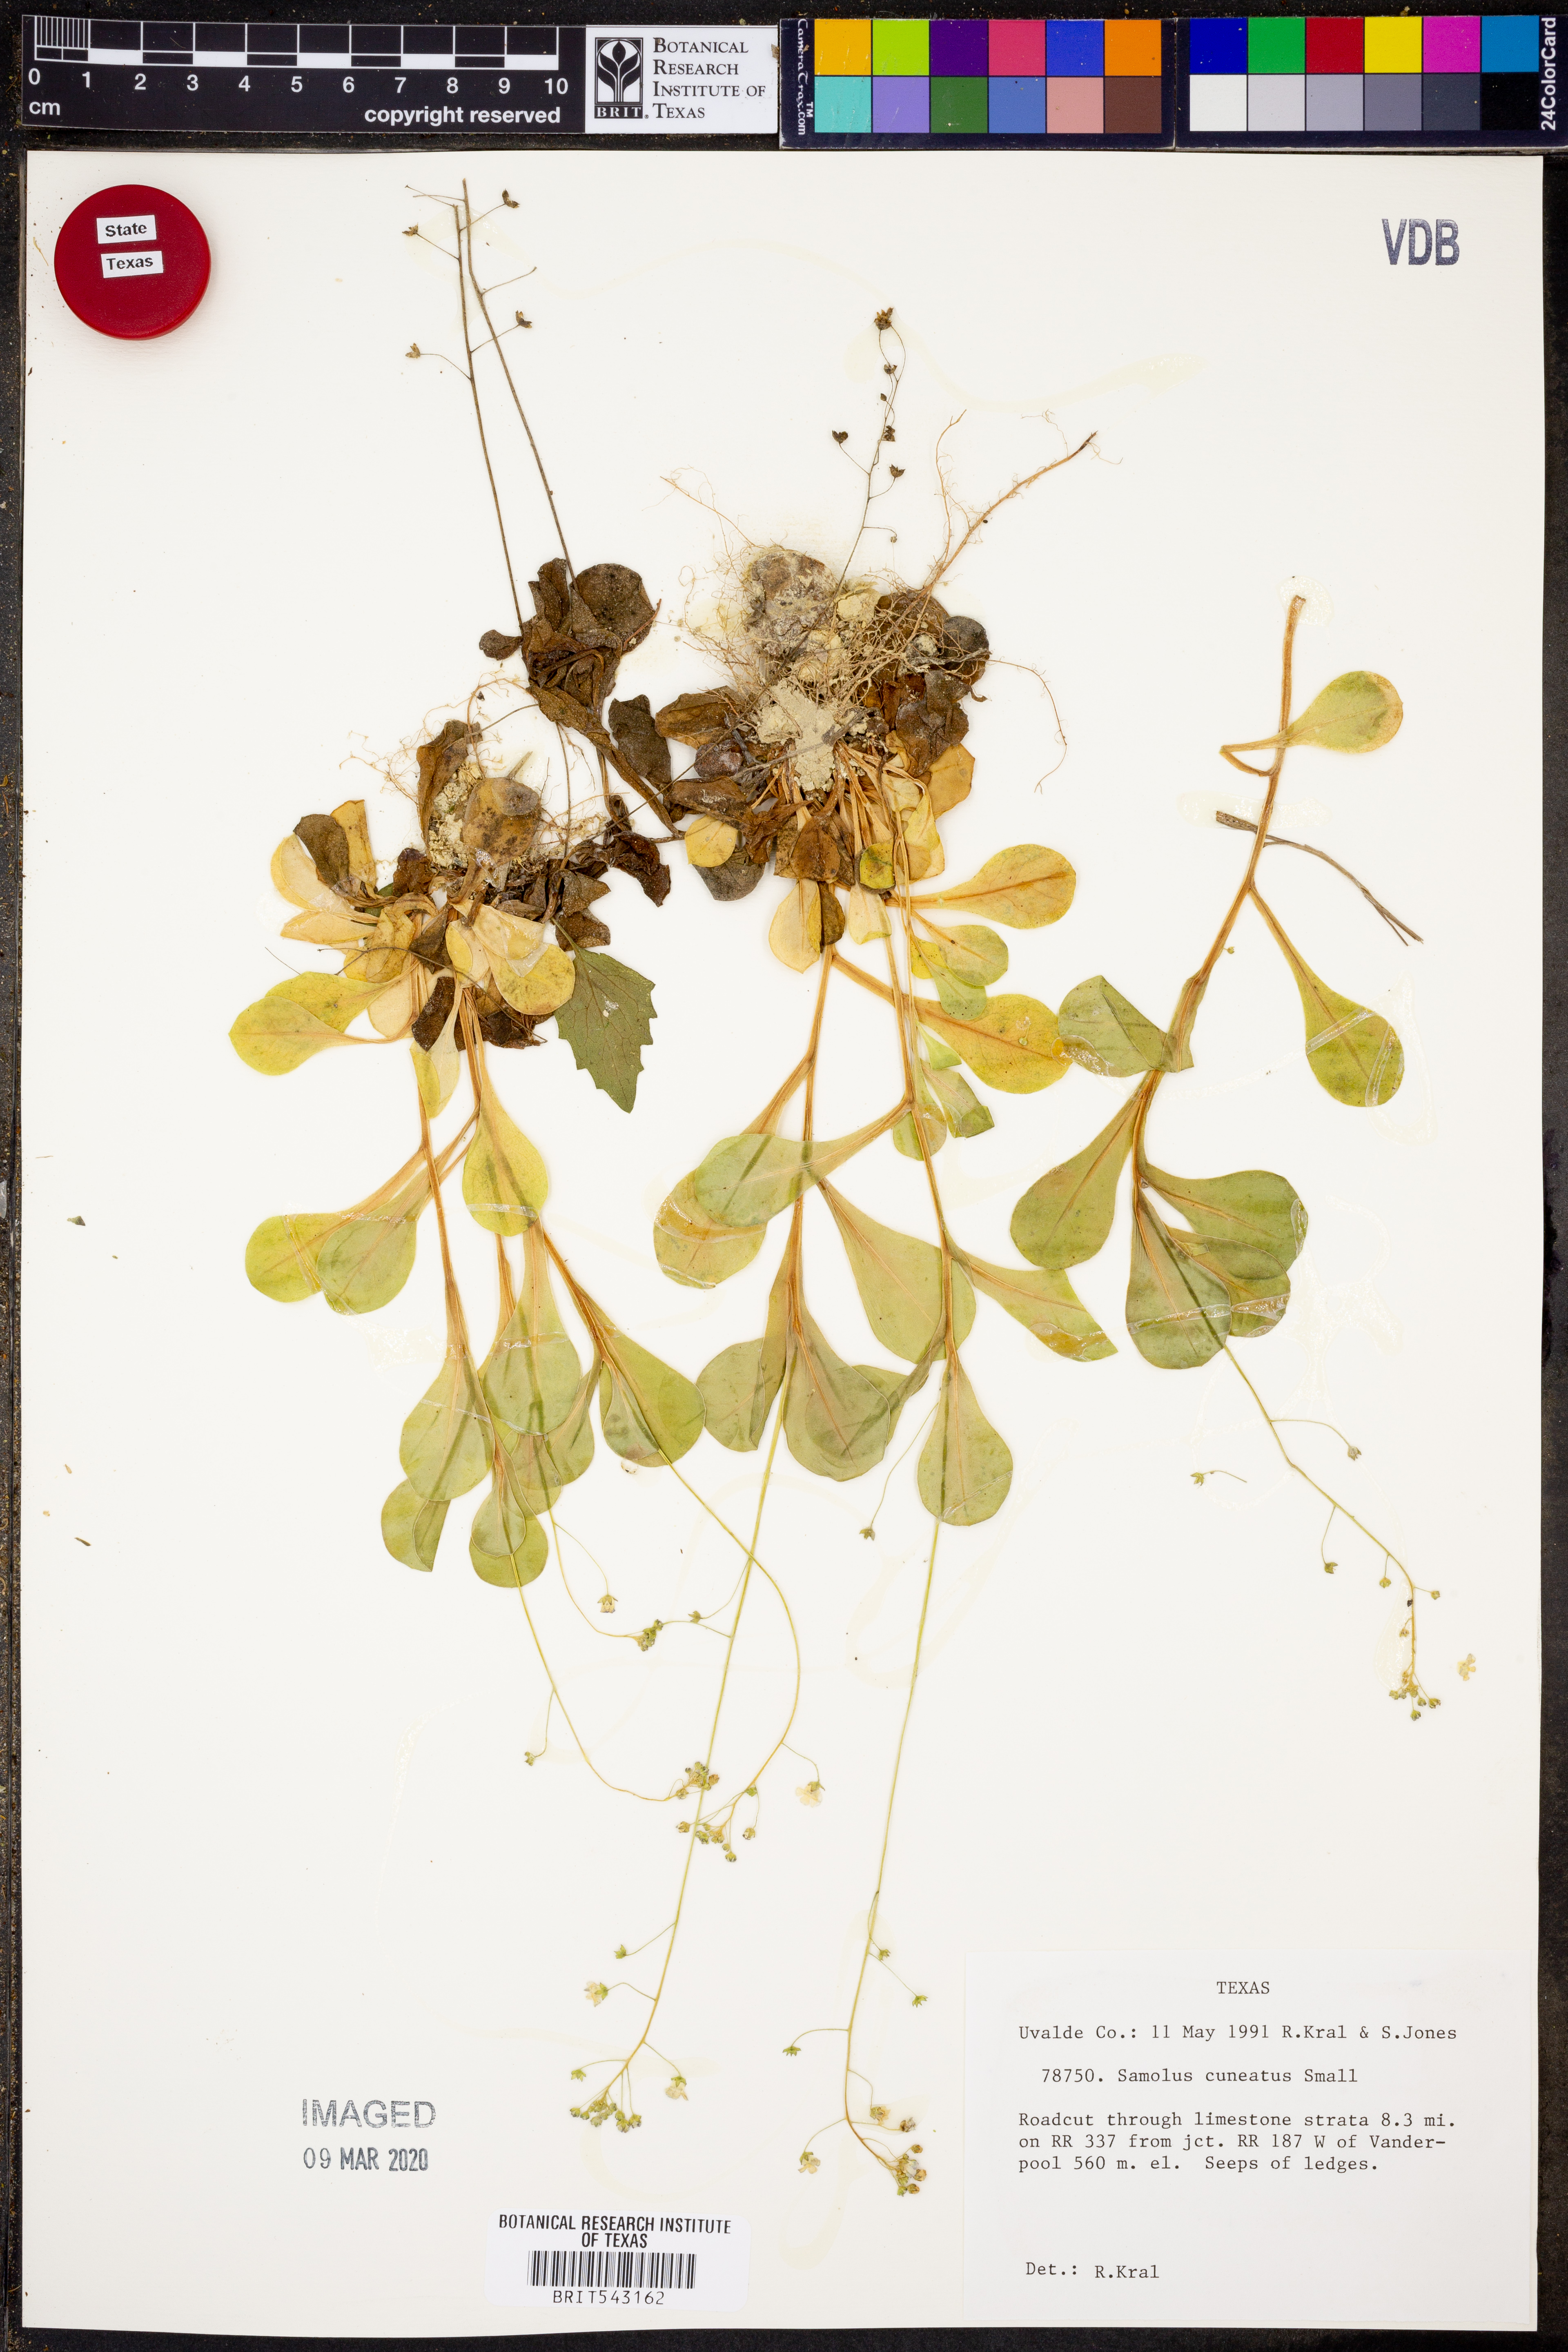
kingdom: Plantae
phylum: Tracheophyta
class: Magnoliopsida
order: Ericales
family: Primulaceae
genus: Samolus
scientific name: Samolus ebracteatus
